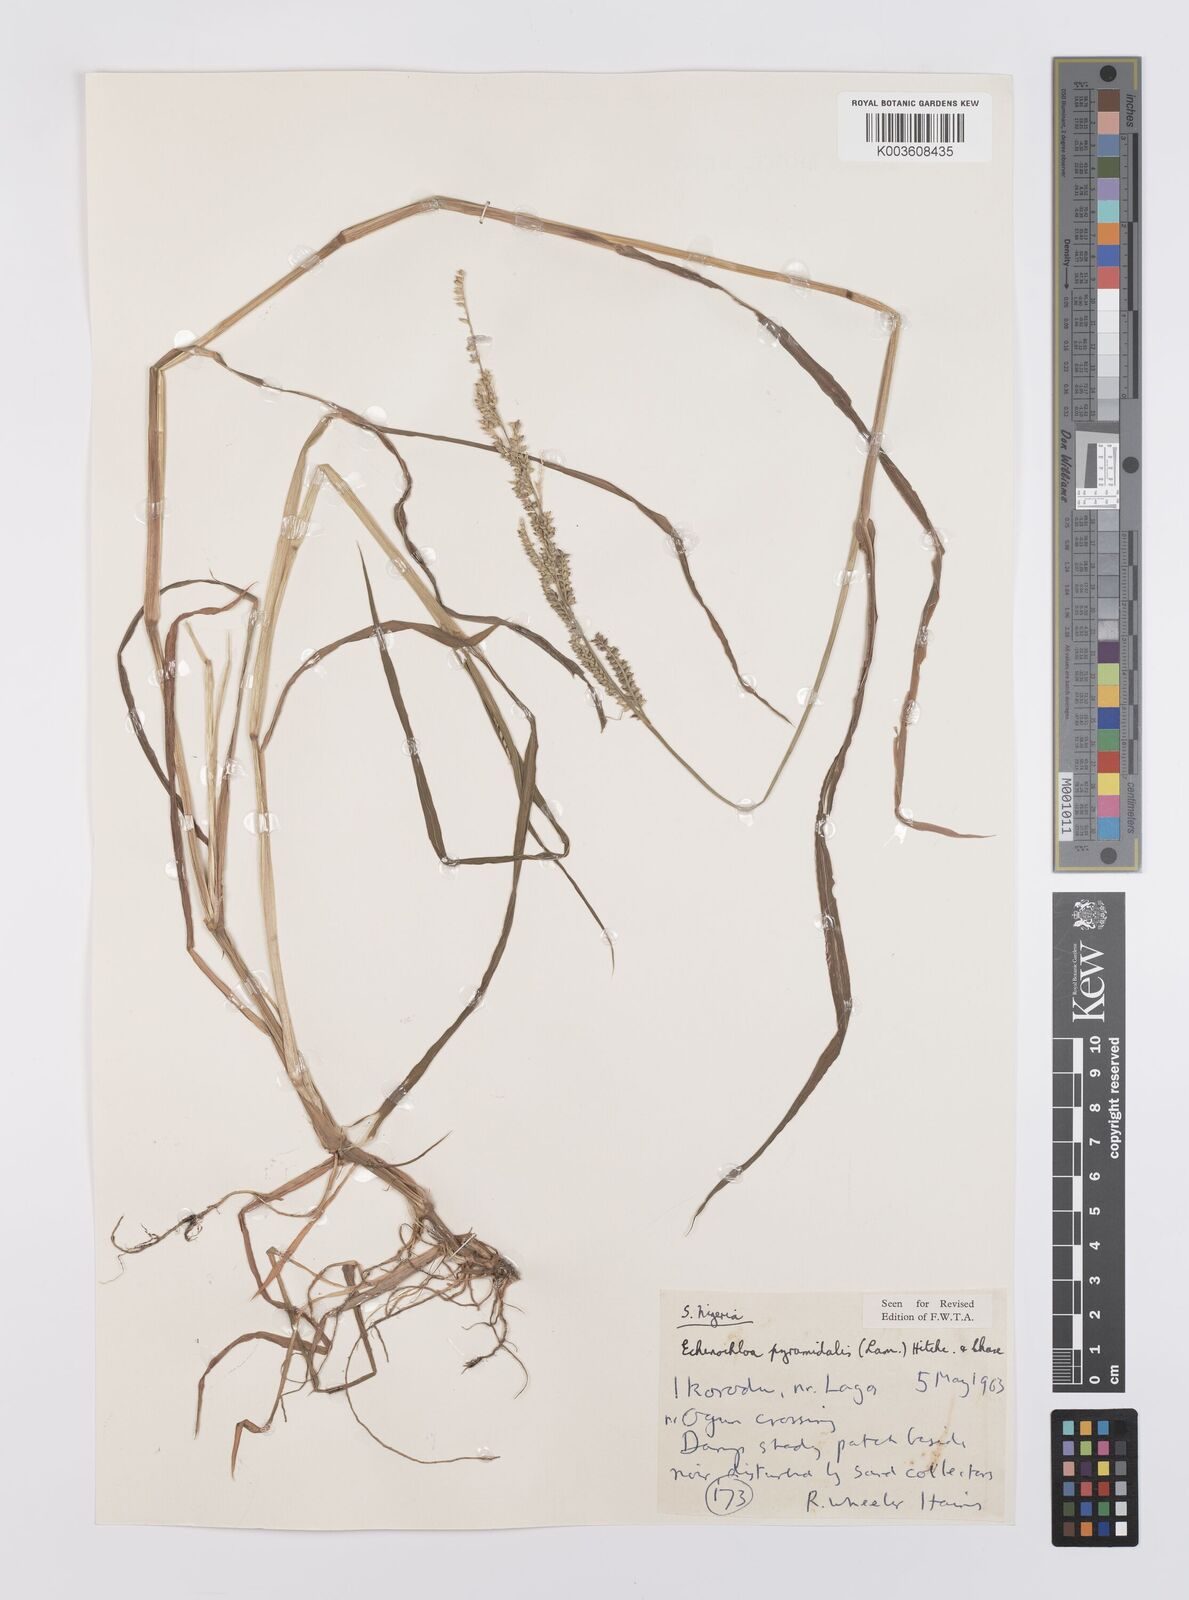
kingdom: Plantae
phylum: Tracheophyta
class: Liliopsida
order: Poales
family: Poaceae
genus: Echinochloa
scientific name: Echinochloa pyramidalis
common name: Antelope grass
